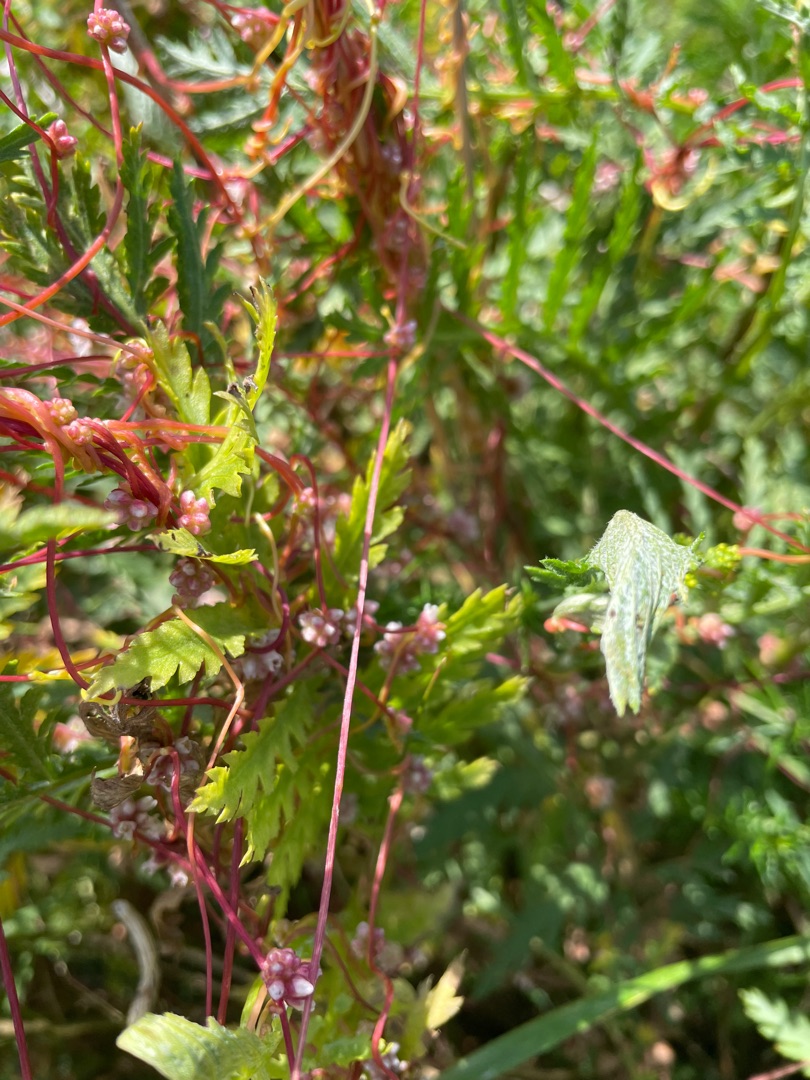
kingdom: Plantae
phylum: Tracheophyta
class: Magnoliopsida
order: Solanales
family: Convolvulaceae
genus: Cuscuta
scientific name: Cuscuta epithymum
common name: Lyng-silke
